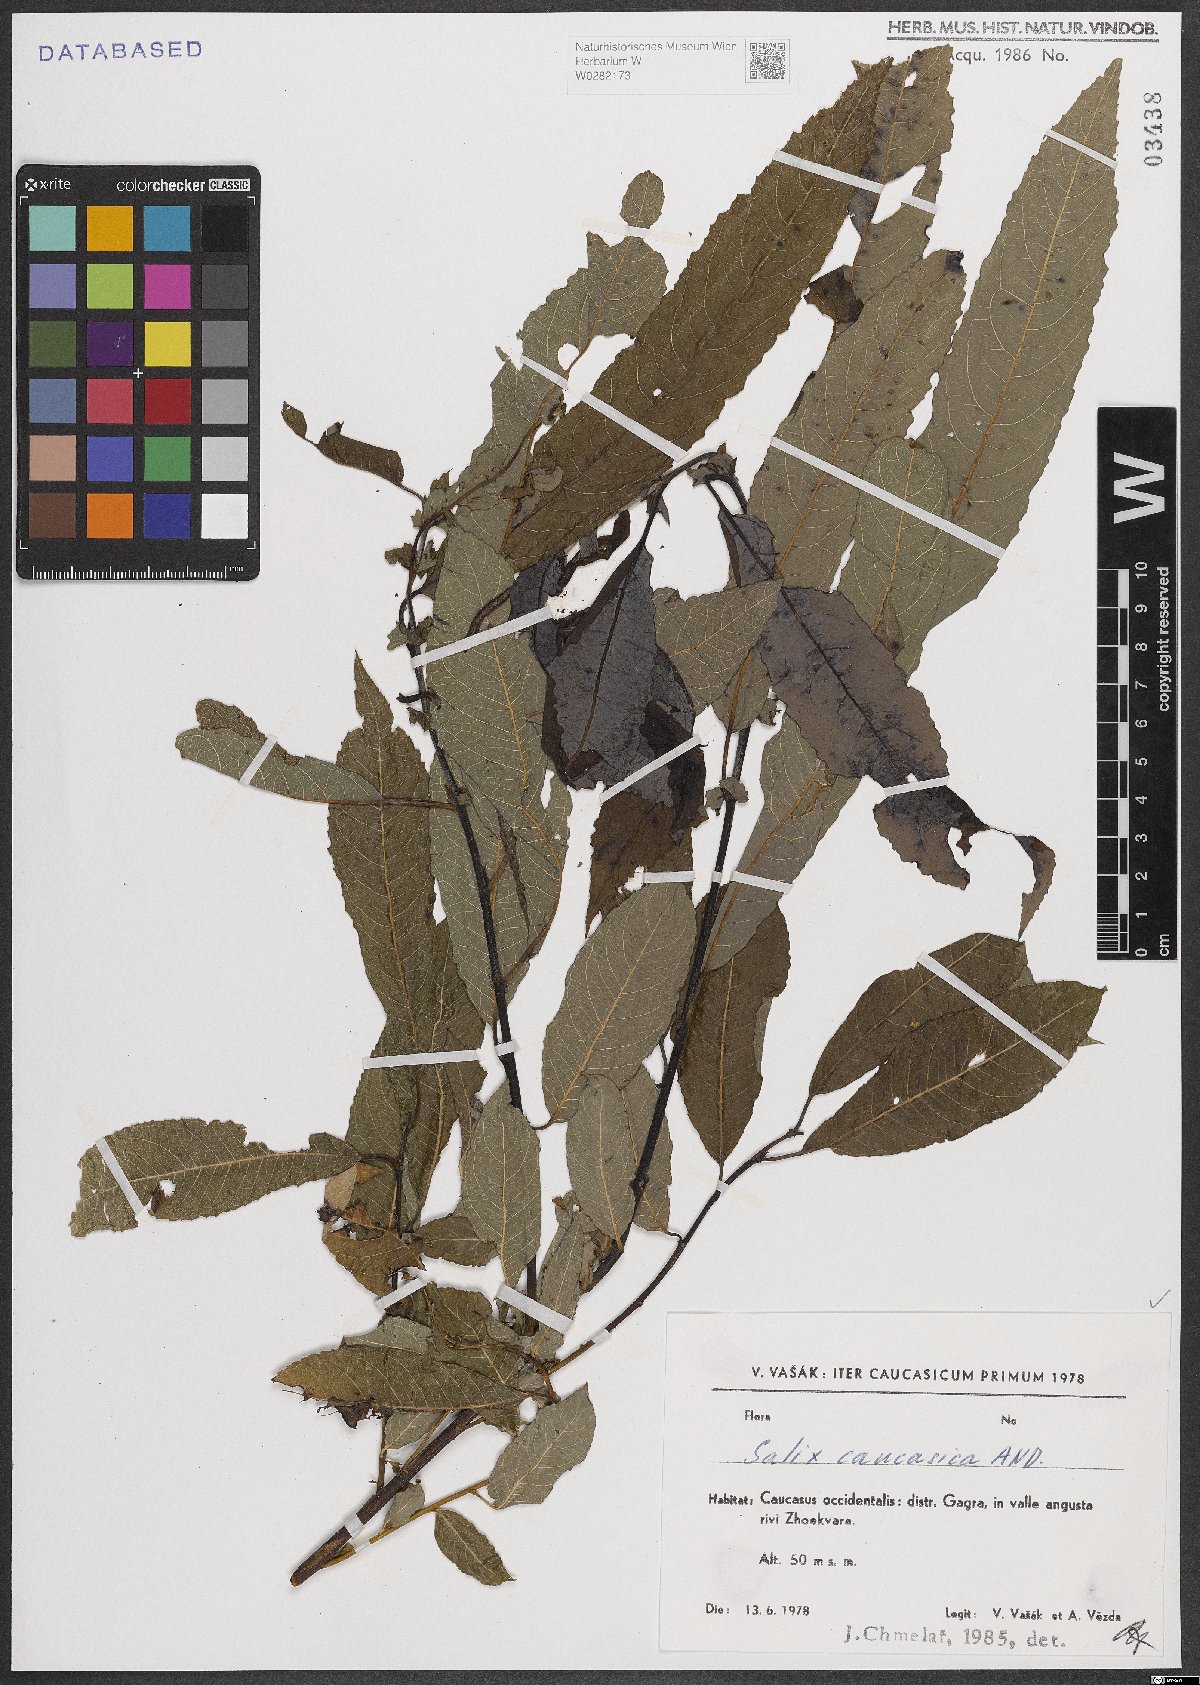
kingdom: Plantae
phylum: Tracheophyta
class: Magnoliopsida
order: Malpighiales
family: Salicaceae
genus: Salix
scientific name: Salix caucasica
